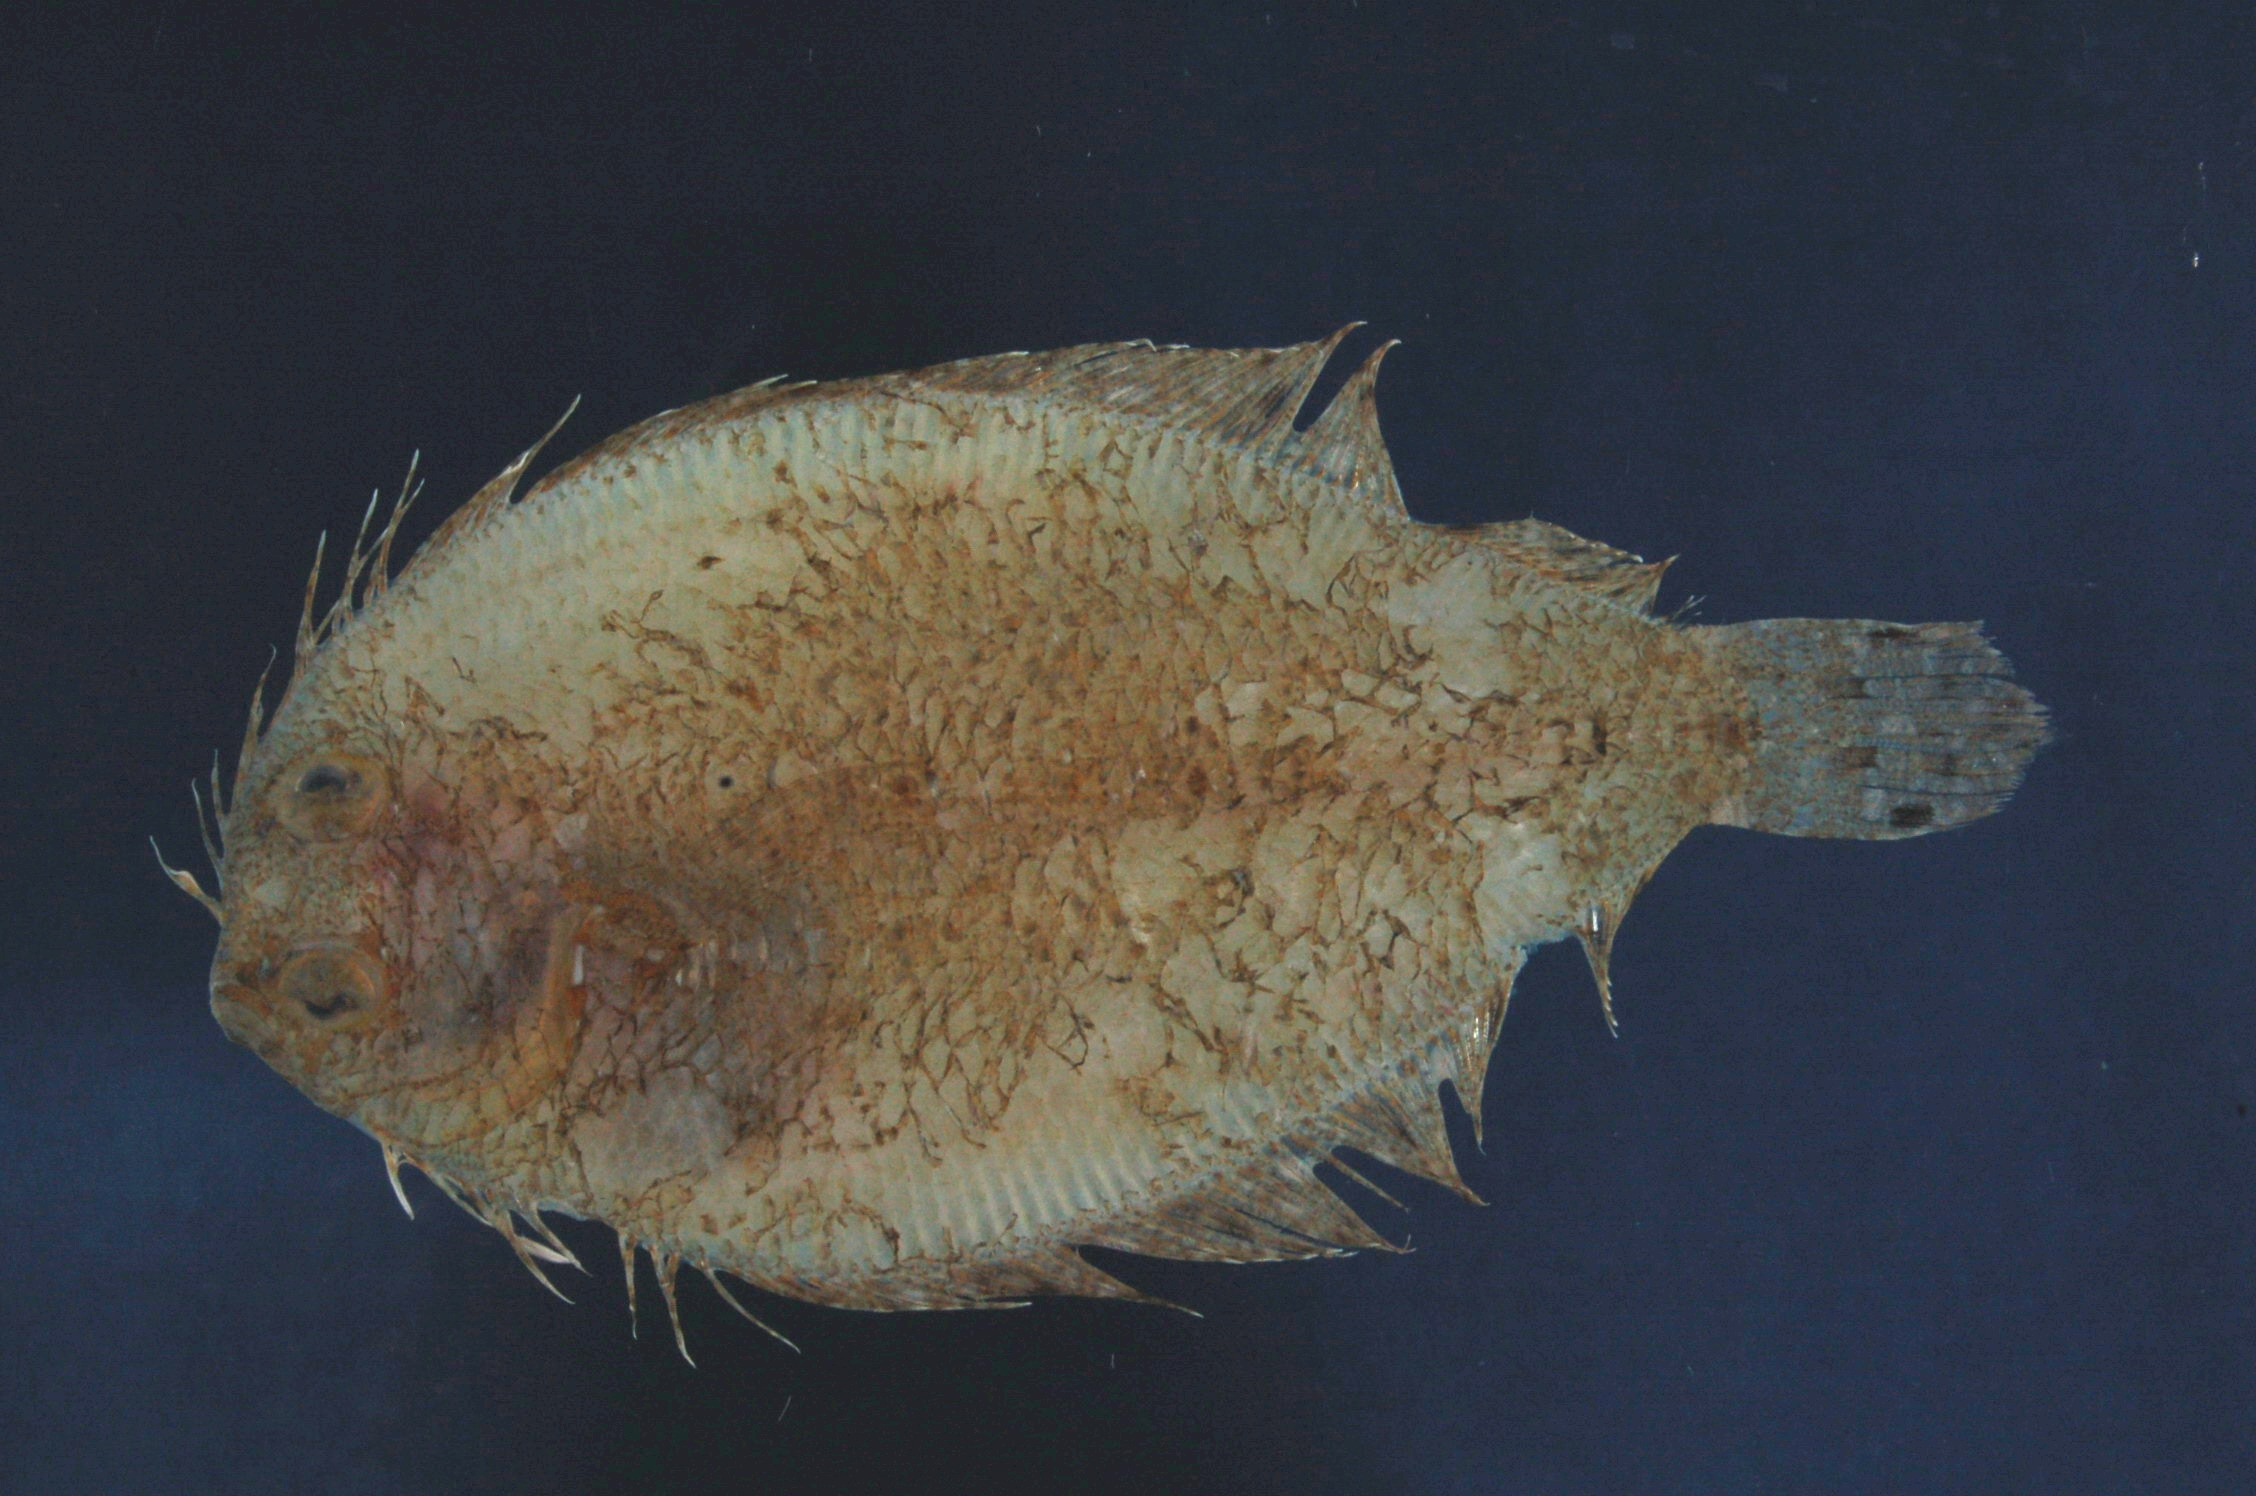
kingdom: Animalia
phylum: Chordata
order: Pleuronectiformes
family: Bothidae
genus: Engyprosopon
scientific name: Engyprosopon grandisquama
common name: Largescale flounder
